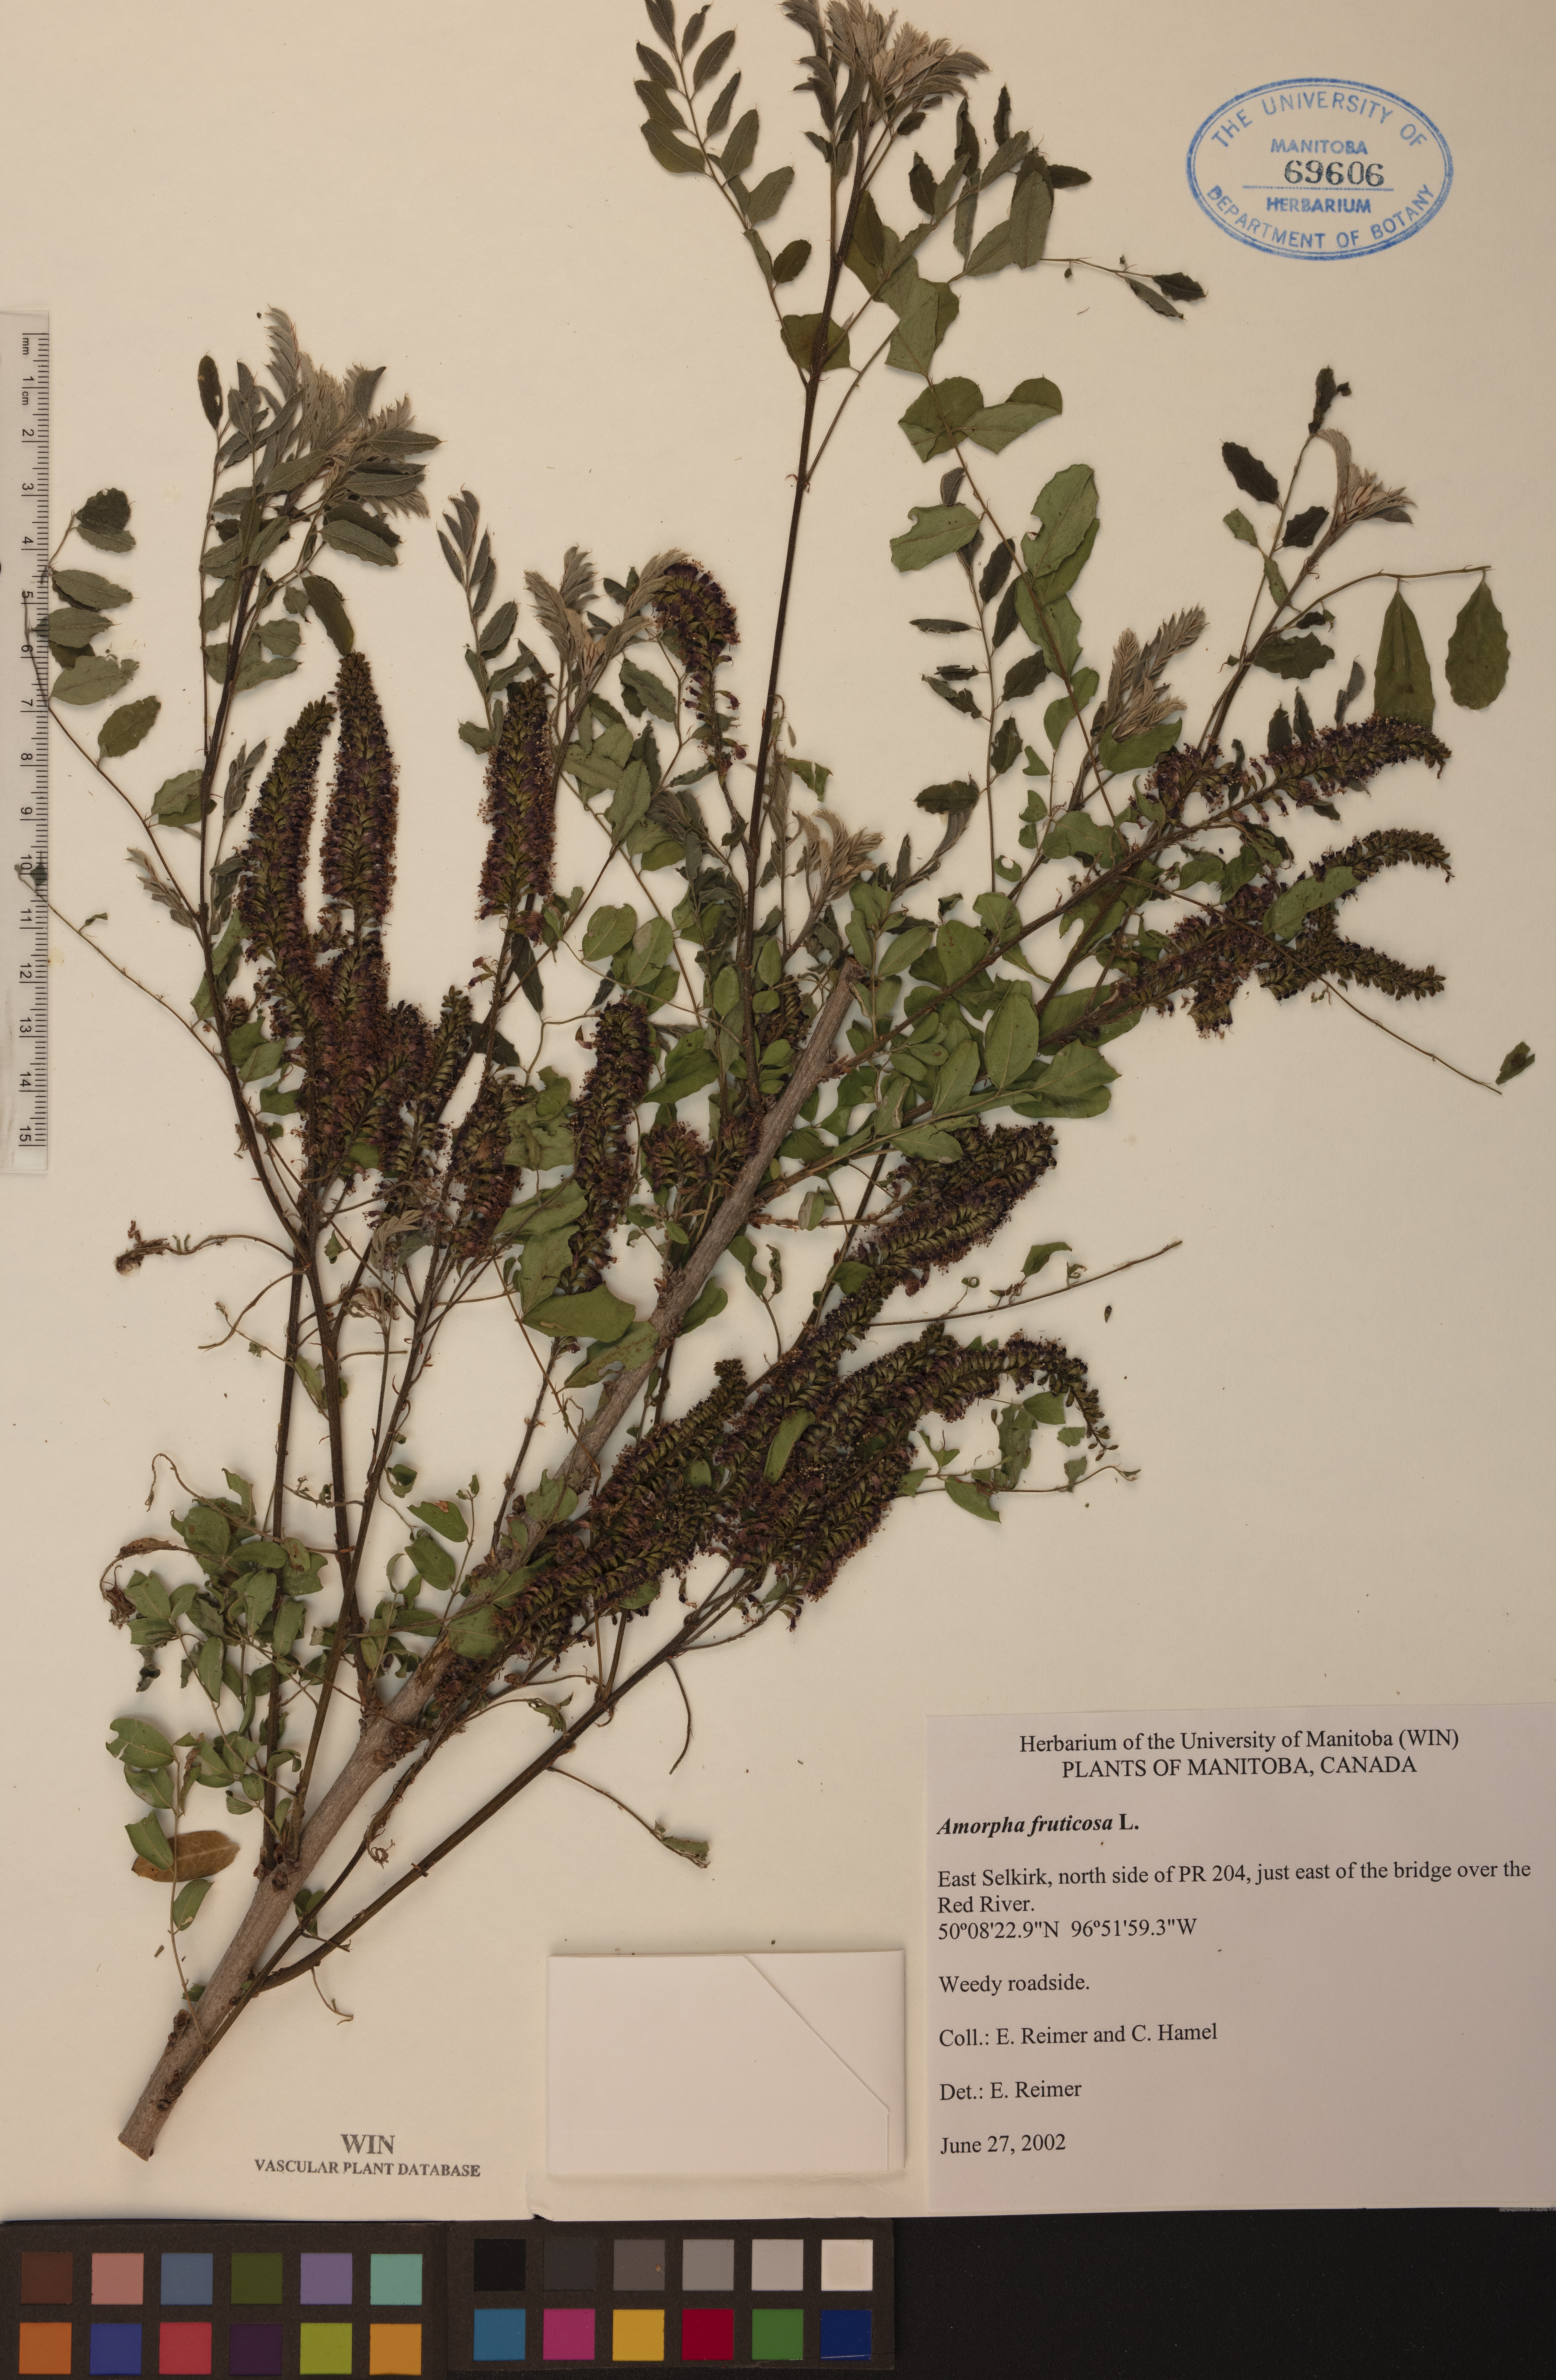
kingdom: Plantae
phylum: Tracheophyta
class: Magnoliopsida
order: Fabales
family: Fabaceae
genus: Amorpha
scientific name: Amorpha fruticosa
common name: False indigo
